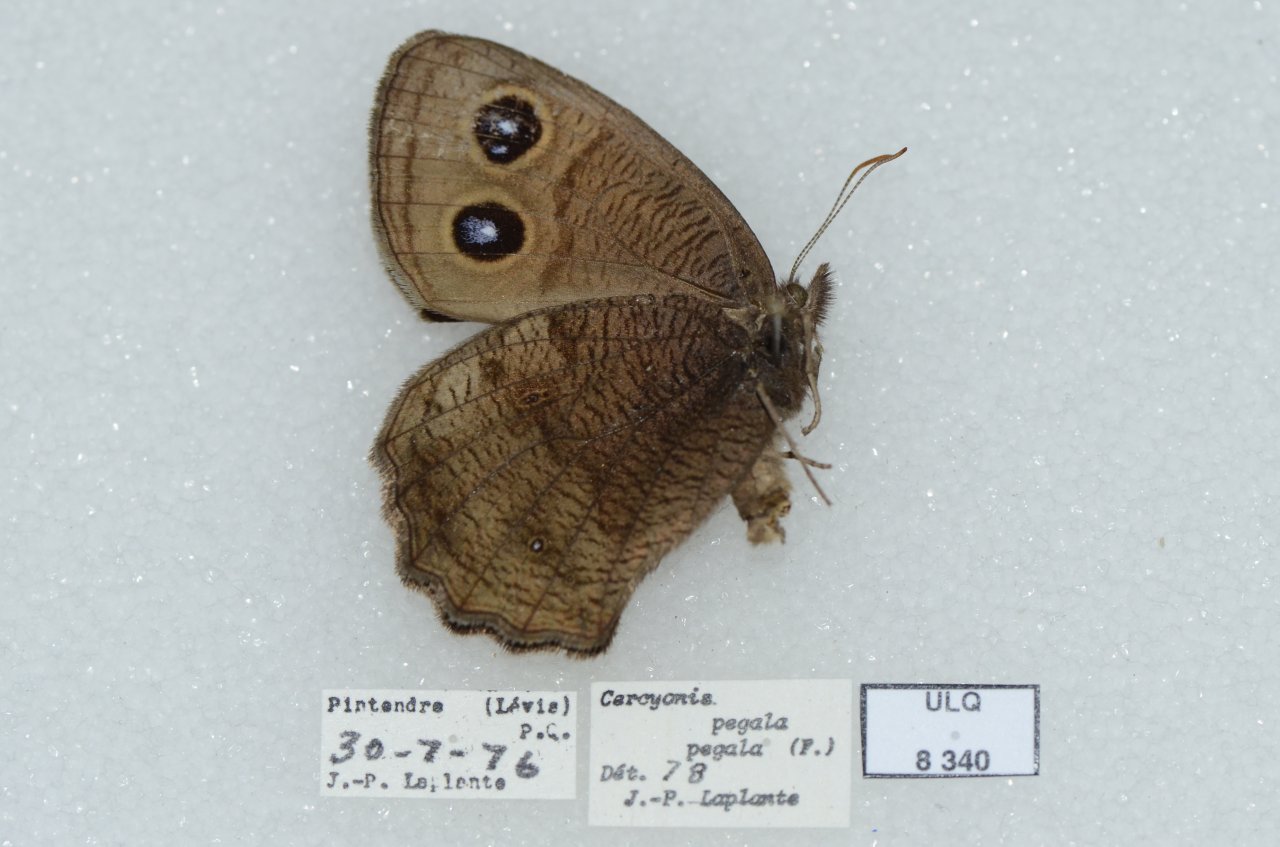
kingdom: Animalia
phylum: Arthropoda
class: Insecta
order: Lepidoptera
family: Nymphalidae
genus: Cercyonis
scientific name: Cercyonis pegala
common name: Common Wood-Nymph
